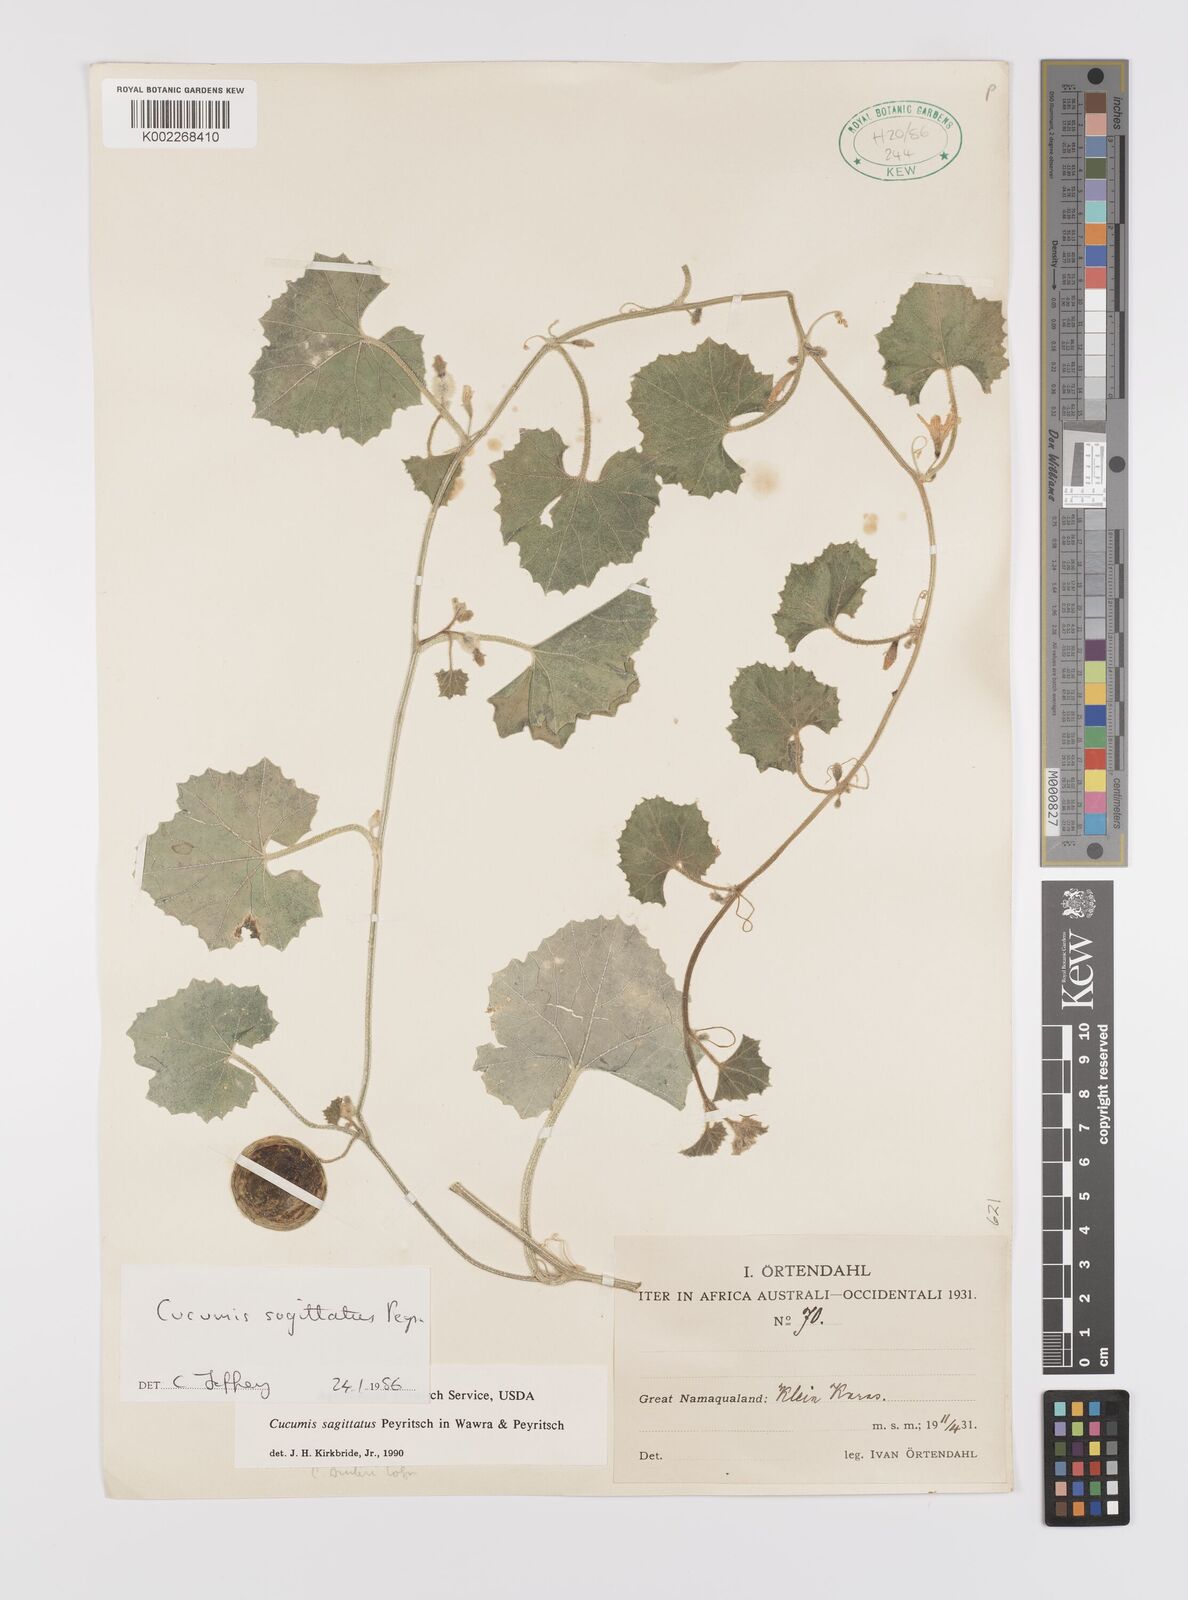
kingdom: Plantae
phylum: Tracheophyta
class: Magnoliopsida
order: Cucurbitales
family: Cucurbitaceae
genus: Cucumis
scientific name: Cucumis sagittatus
